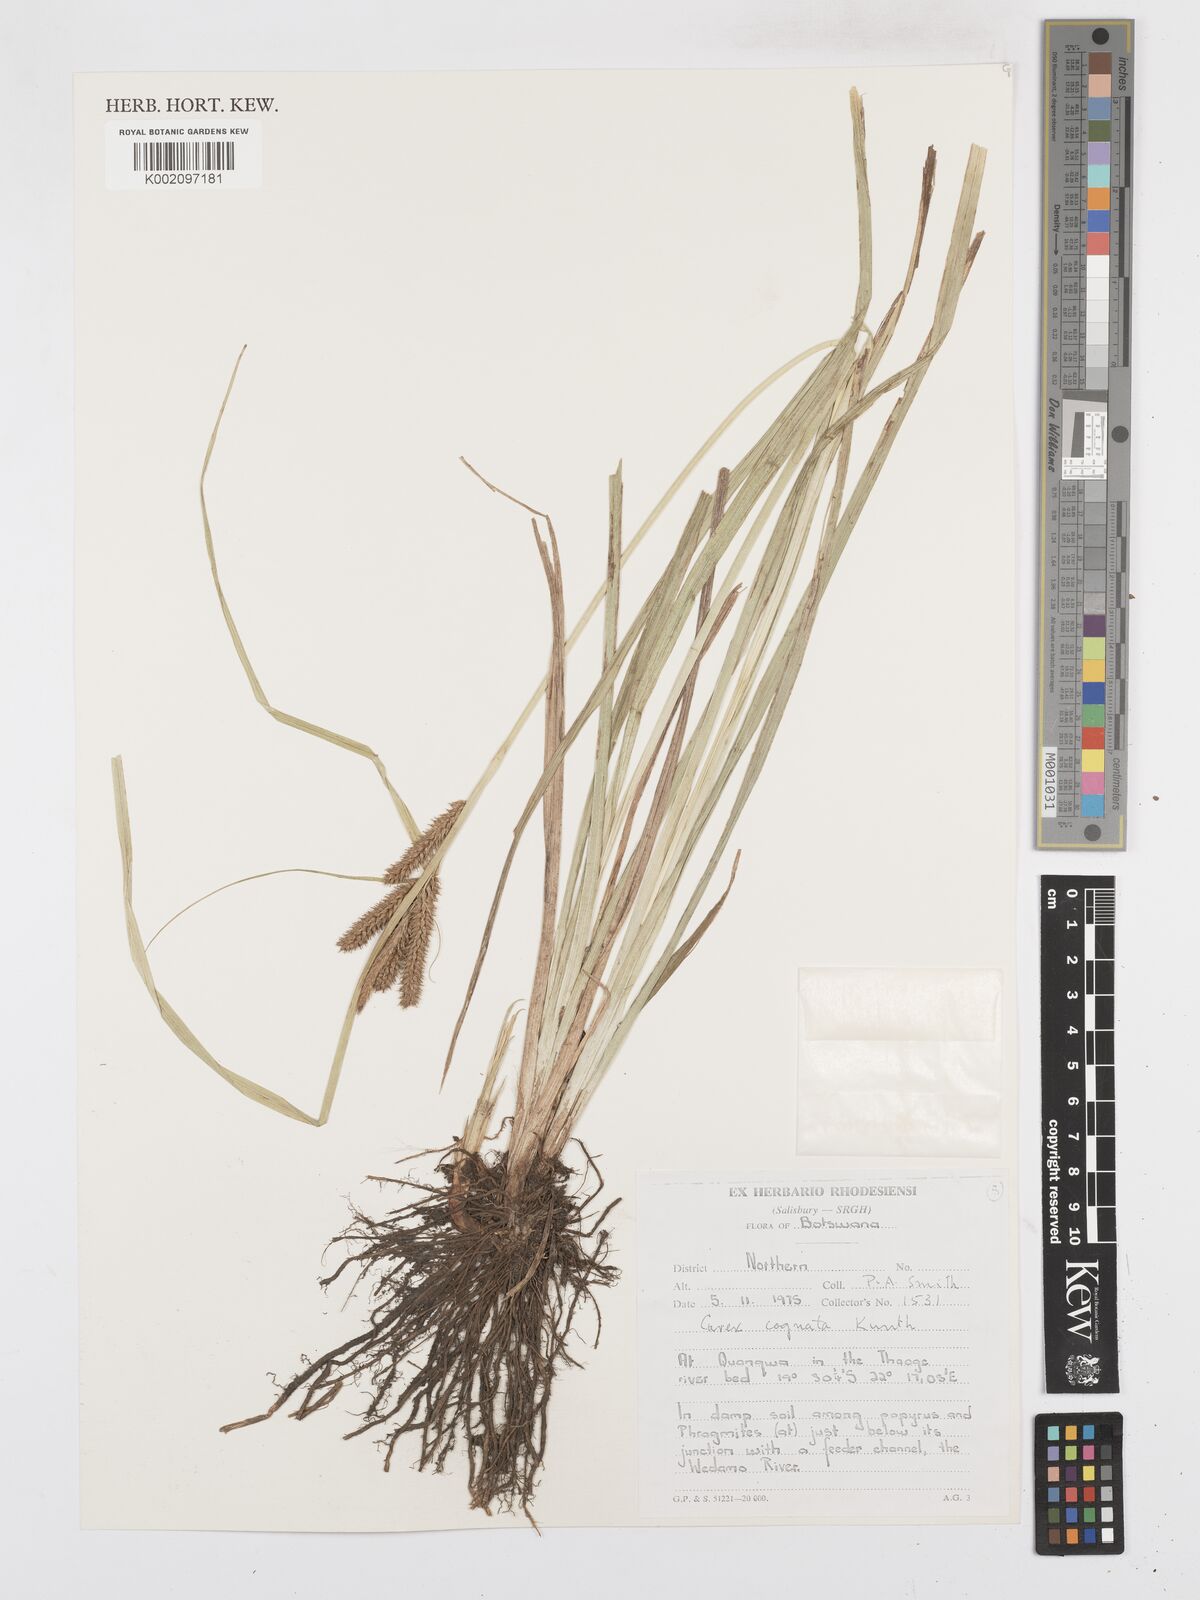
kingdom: Plantae
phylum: Tracheophyta
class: Liliopsida
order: Poales
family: Cyperaceae
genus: Carex
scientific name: Carex cognata
